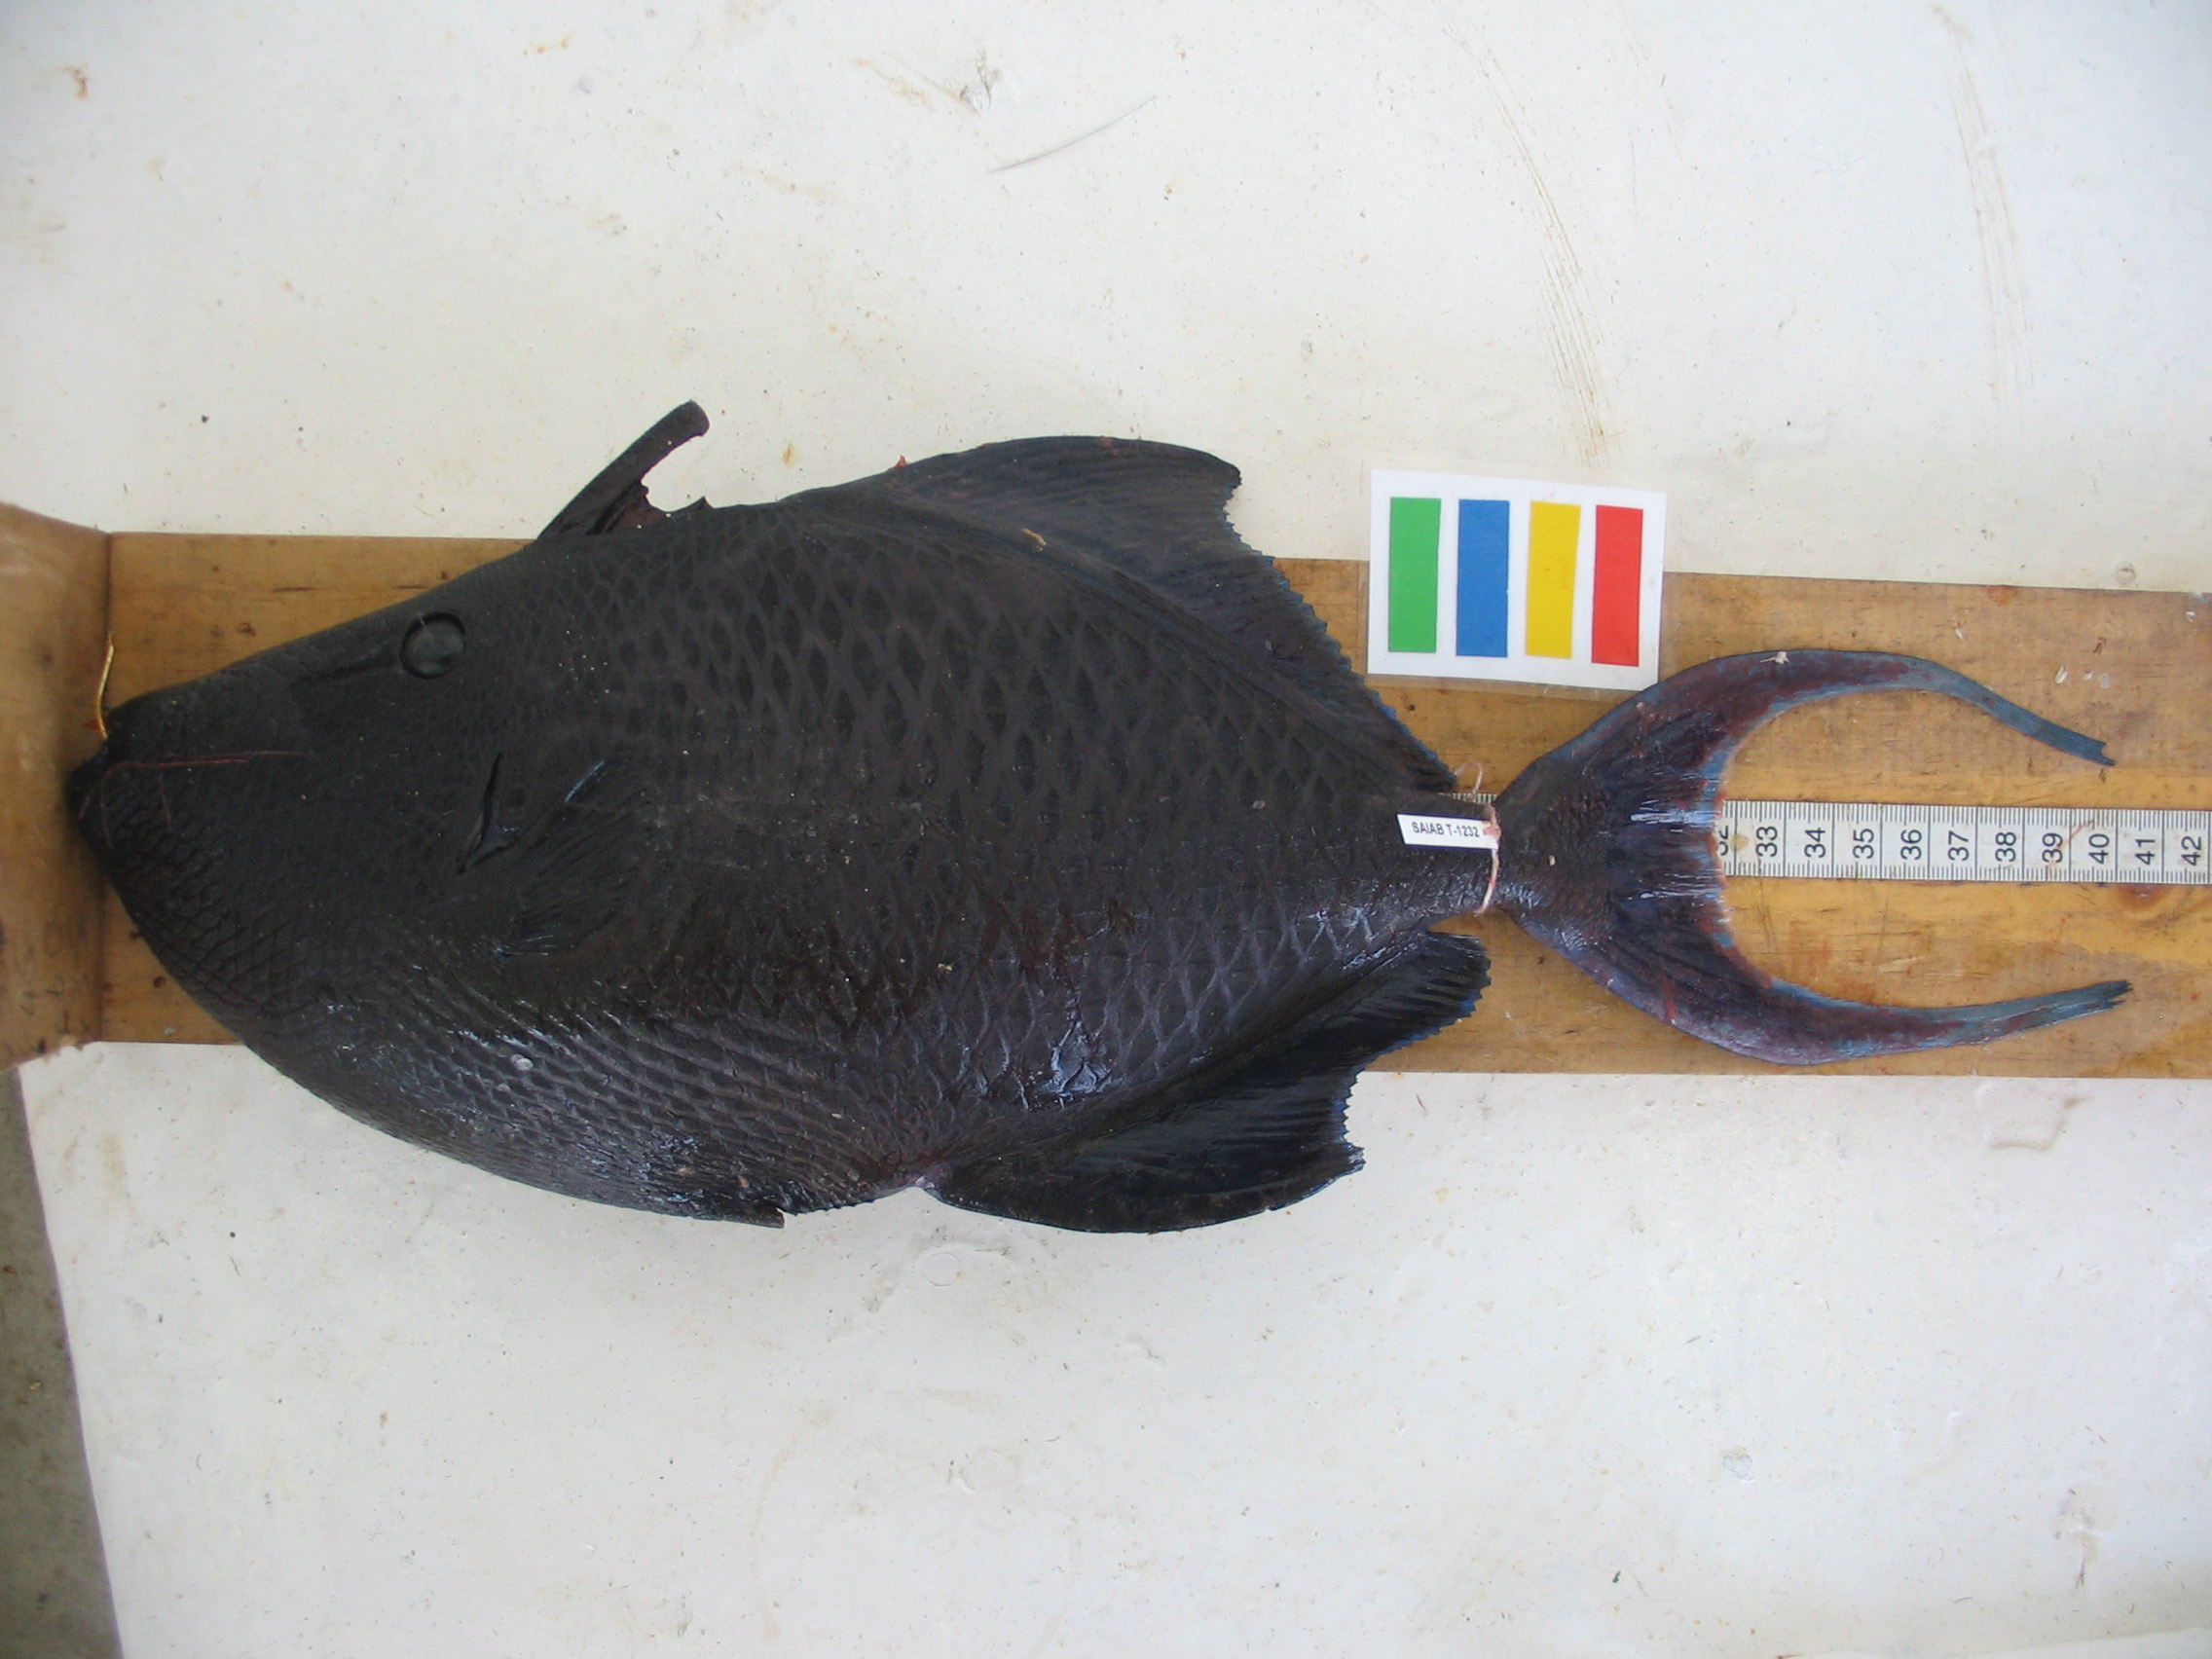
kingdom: Animalia
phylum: Chordata
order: Tetraodontiformes
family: Balistidae
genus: Odonus
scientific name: Odonus niger
